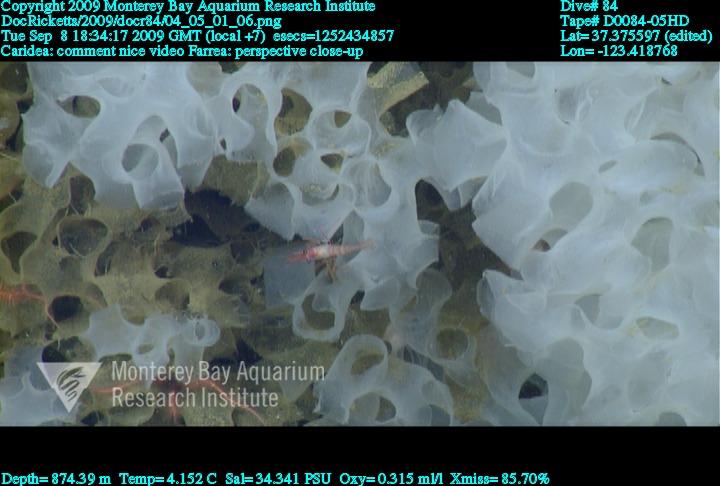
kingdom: Animalia
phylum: Porifera
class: Hexactinellida
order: Sceptrulophora
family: Farreidae
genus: Farrea
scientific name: Farrea
